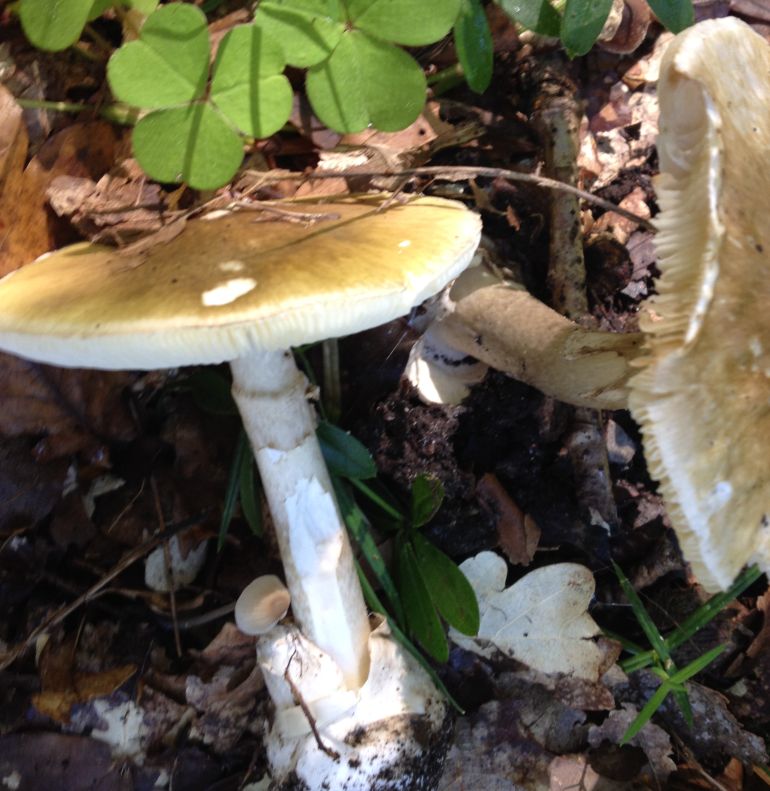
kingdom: Fungi
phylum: Basidiomycota
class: Agaricomycetes
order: Agaricales
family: Amanitaceae
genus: Amanita
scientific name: Amanita phalloides
